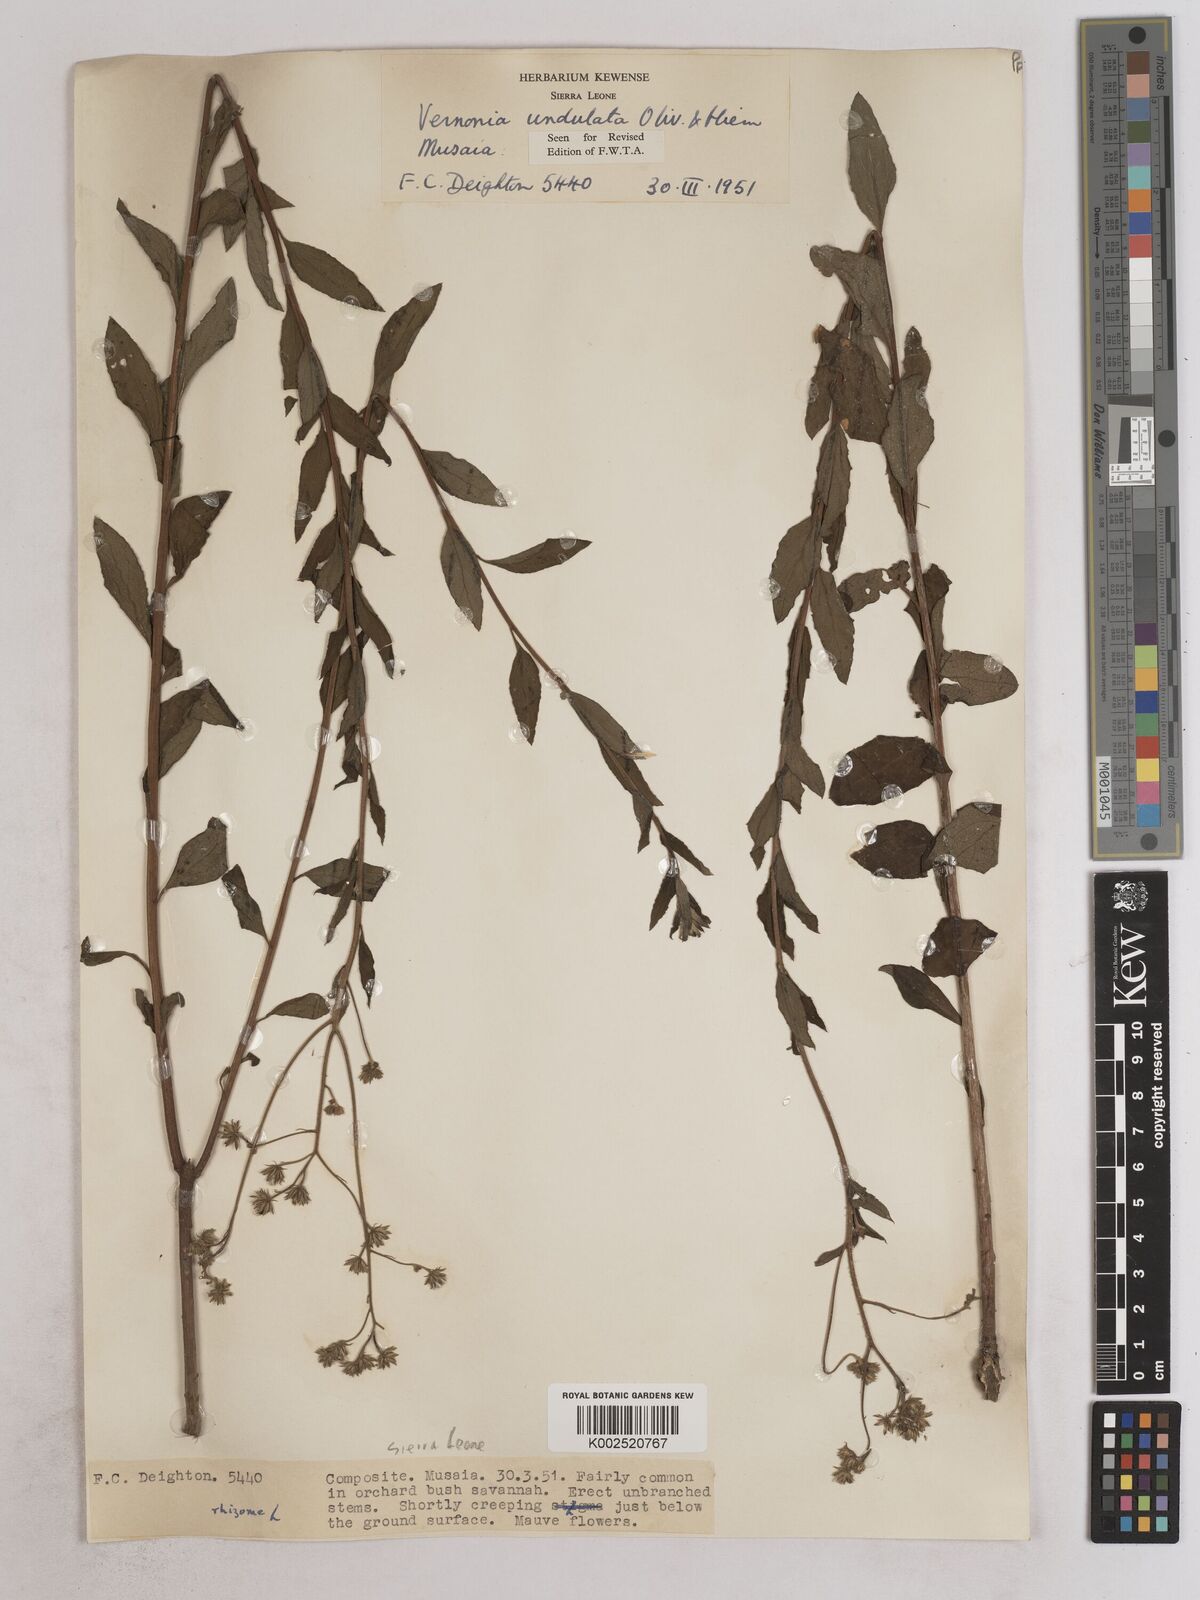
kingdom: Plantae
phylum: Tracheophyta
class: Magnoliopsida
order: Asterales
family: Asteraceae
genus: Vernonia
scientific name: Vernonia golungensis
